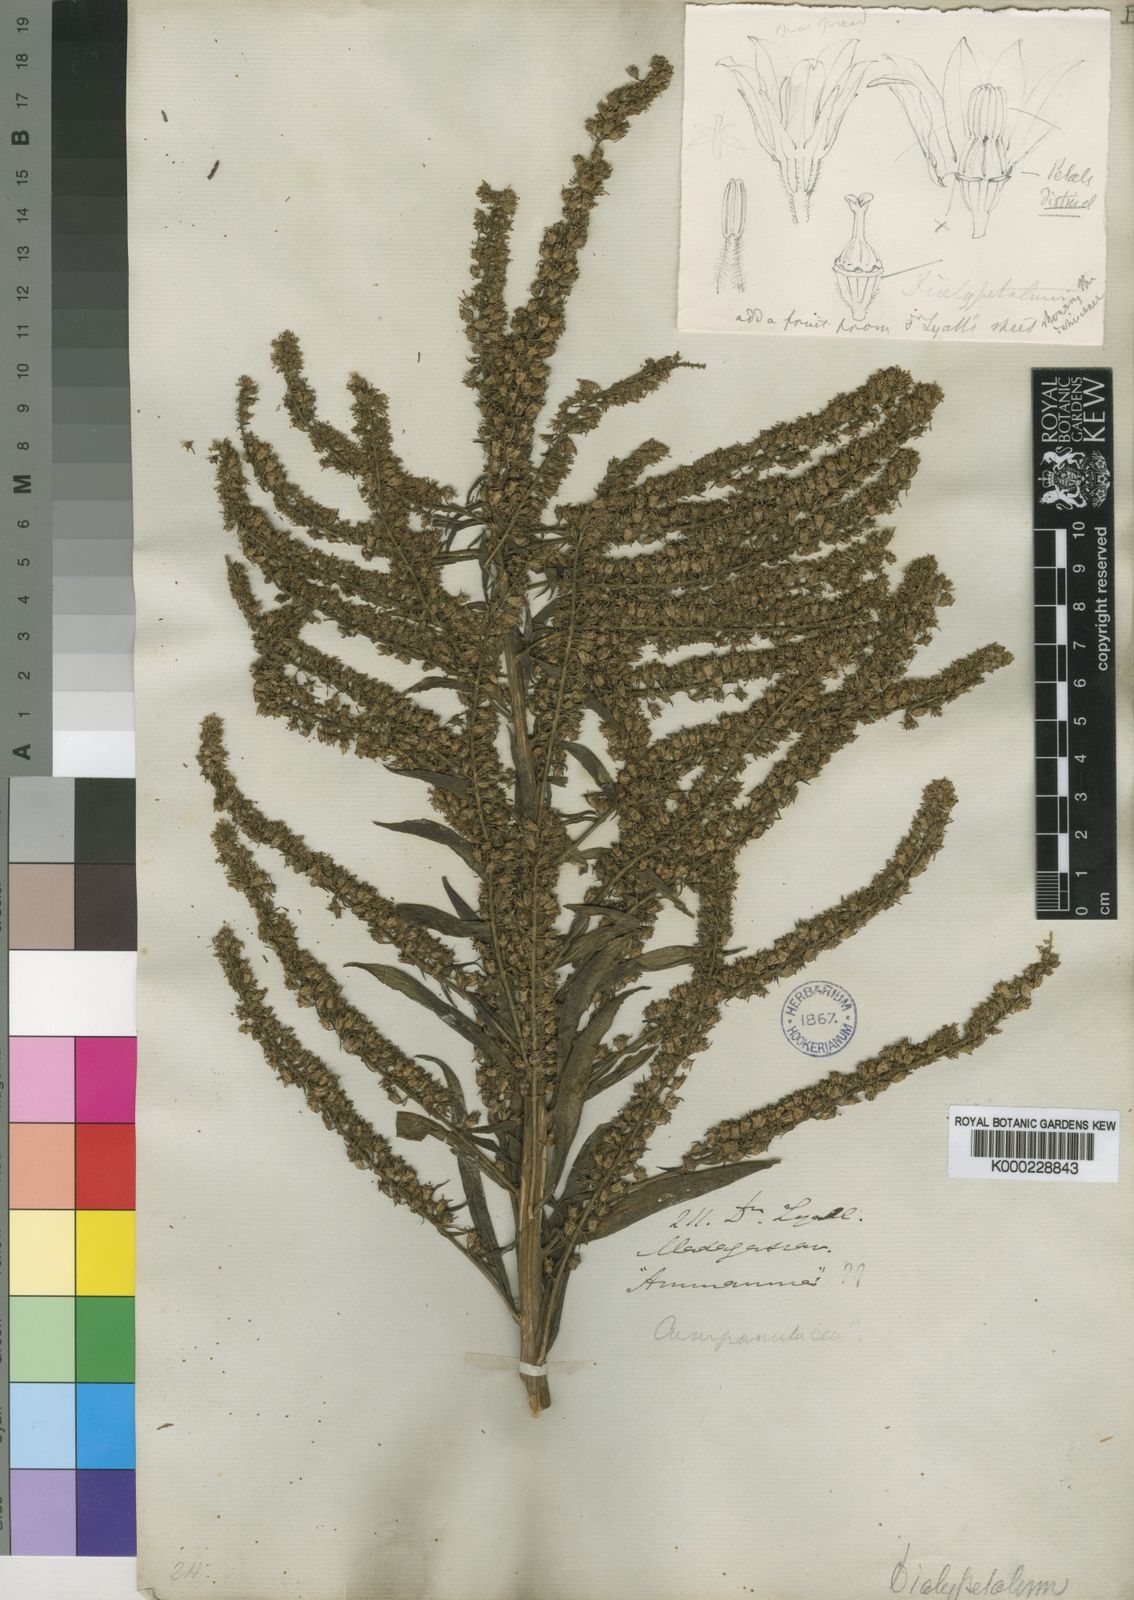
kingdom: Plantae
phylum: Tracheophyta
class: Magnoliopsida
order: Asterales
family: Campanulaceae
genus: Dialypetalum
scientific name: Dialypetalum floribundum
